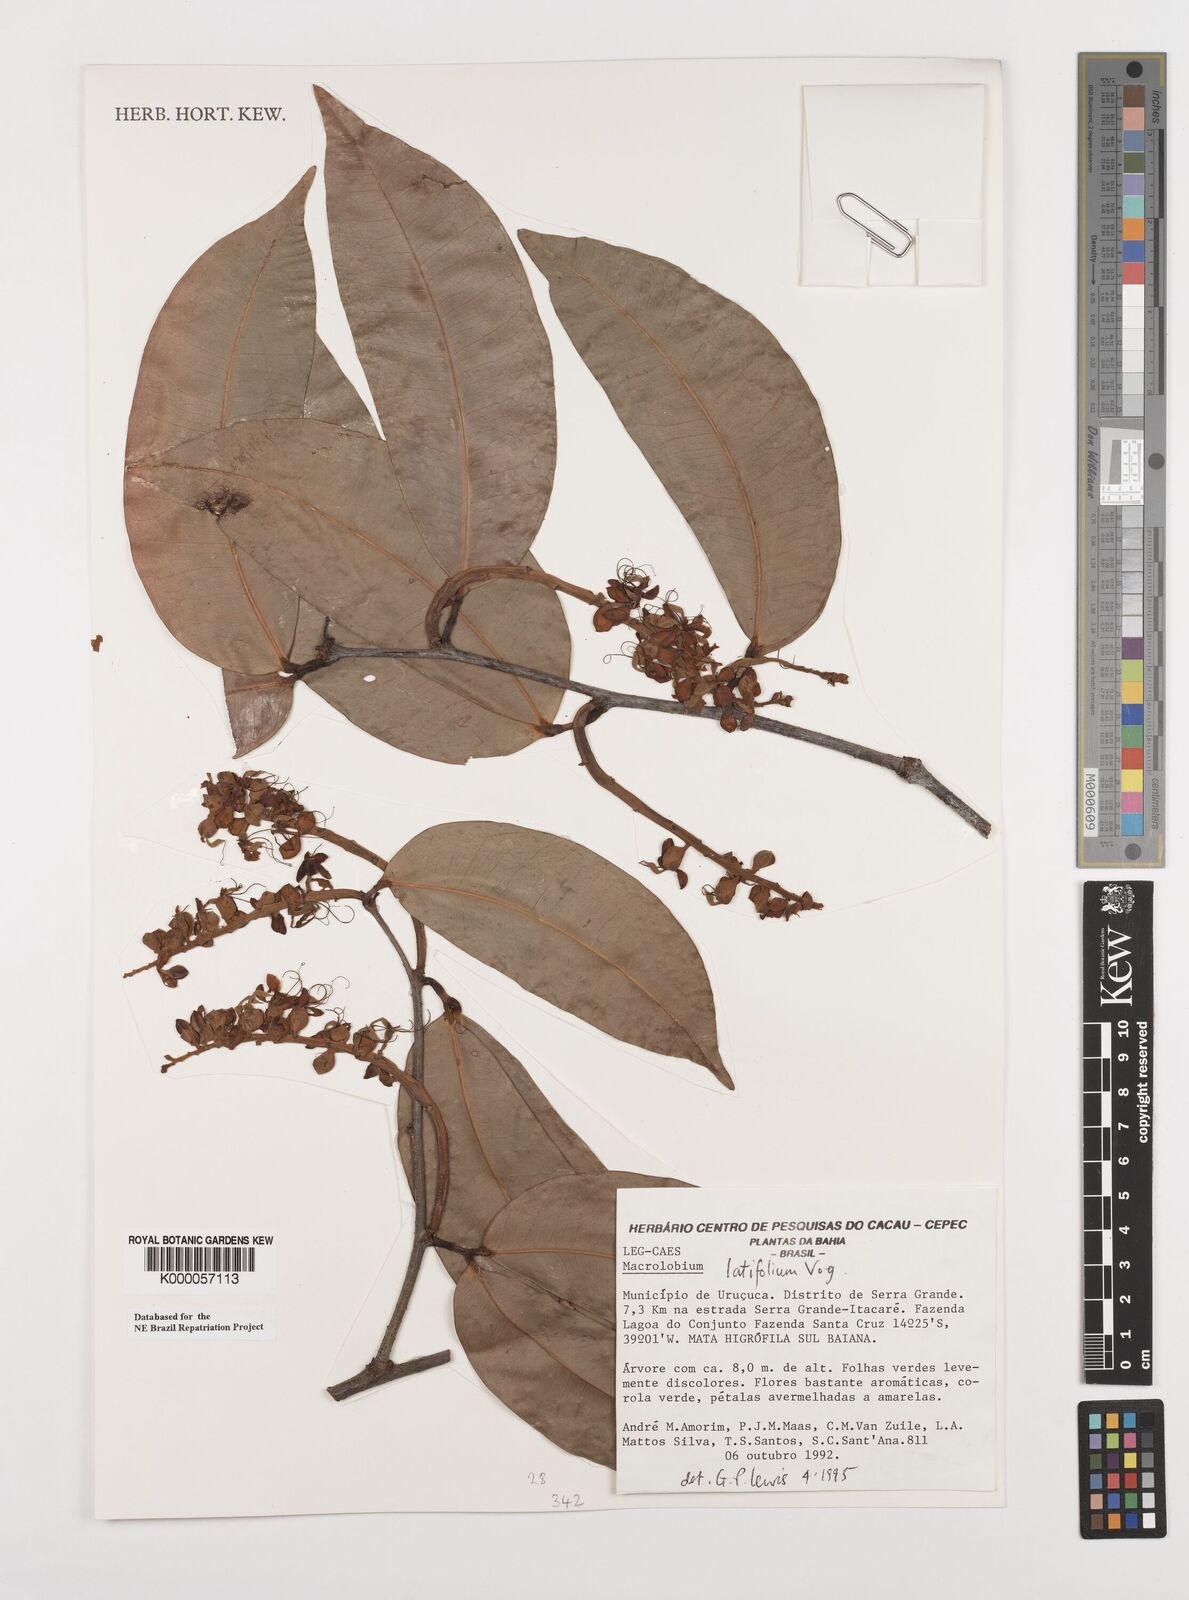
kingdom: Plantae
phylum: Tracheophyta
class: Magnoliopsida
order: Fabales
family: Fabaceae
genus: Macrolobium
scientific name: Macrolobium latifolium
